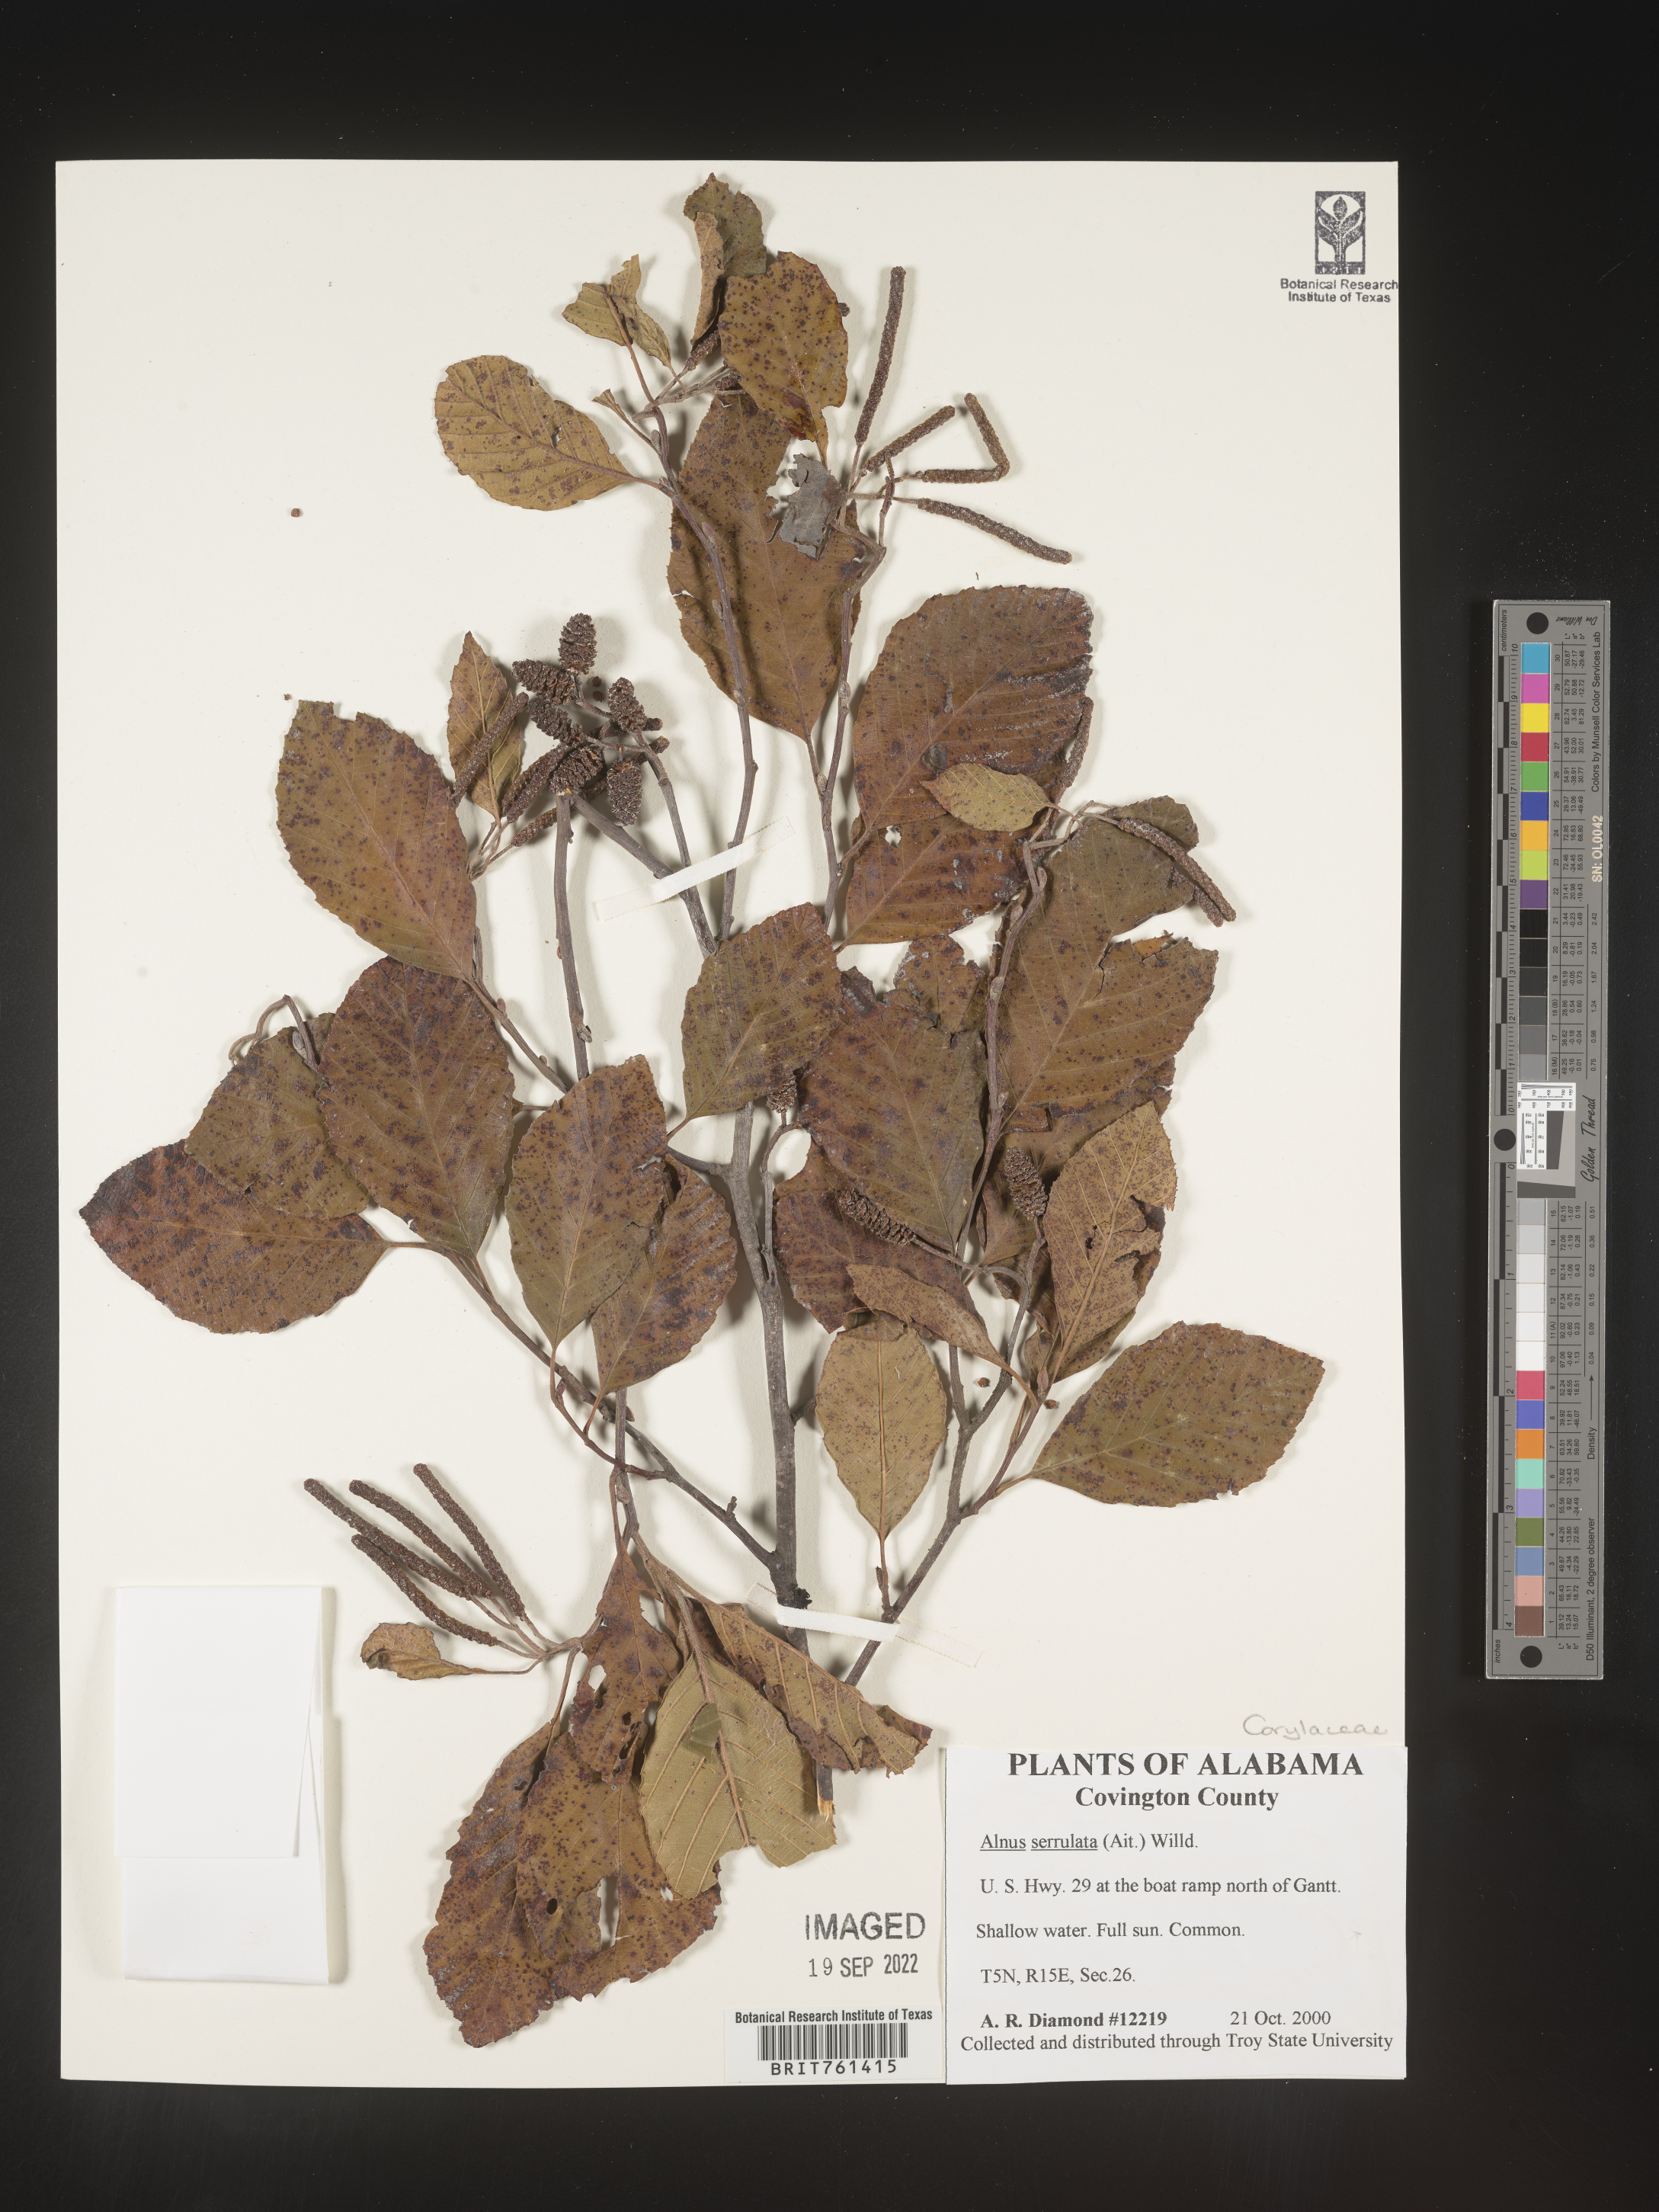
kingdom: Plantae
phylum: Tracheophyta
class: Magnoliopsida
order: Fagales
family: Betulaceae
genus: Alnus
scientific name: Alnus serrulata
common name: Hazel alder
